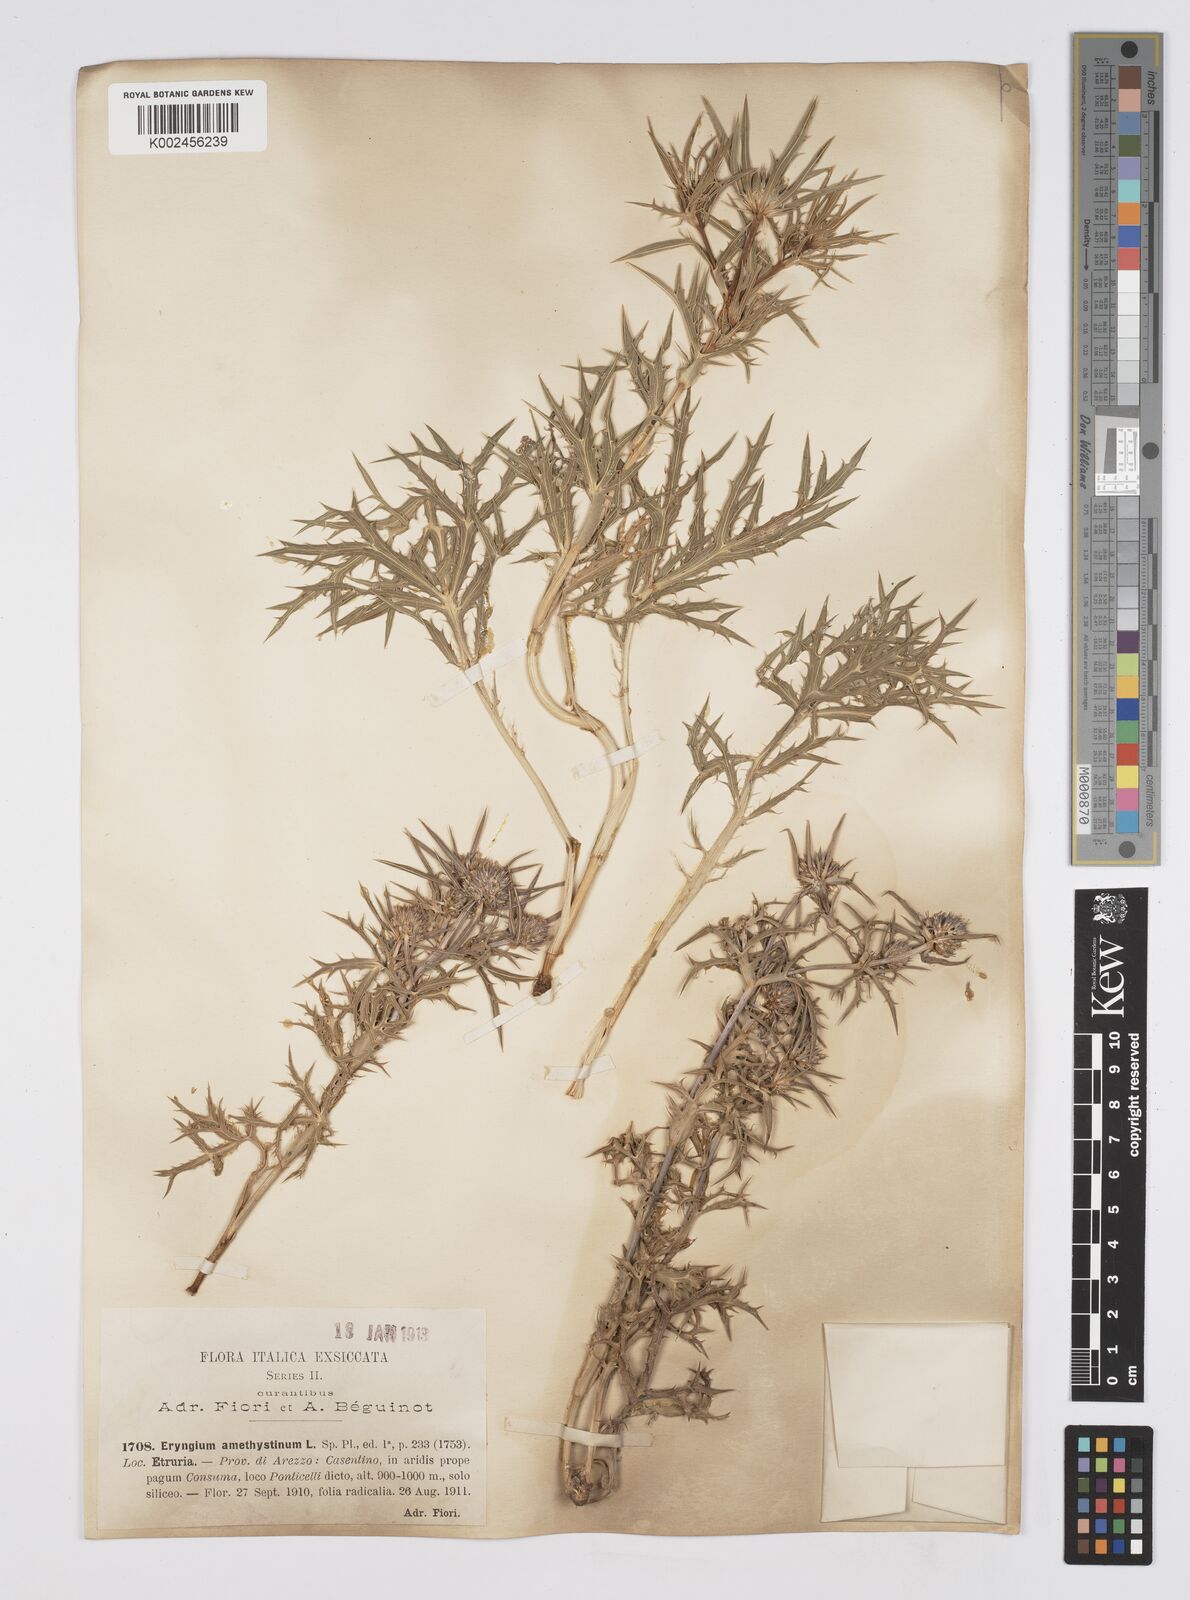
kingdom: Plantae
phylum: Tracheophyta
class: Magnoliopsida
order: Apiales
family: Apiaceae
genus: Eryngium
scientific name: Eryngium amethystinum
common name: Amethyst eryngo
